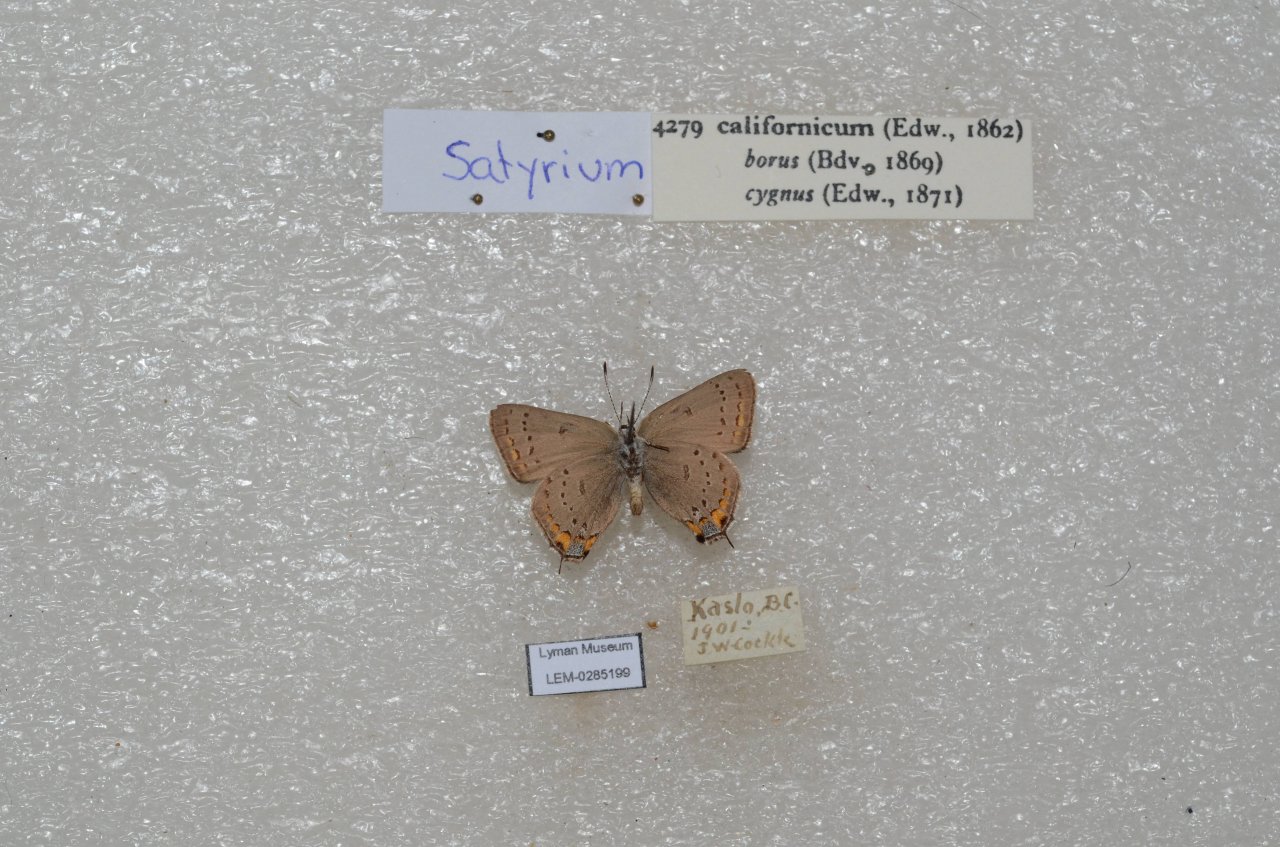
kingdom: Animalia
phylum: Arthropoda
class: Insecta
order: Lepidoptera
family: Lycaenidae
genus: Strymon
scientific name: Strymon acadica
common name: California Hairstreak
